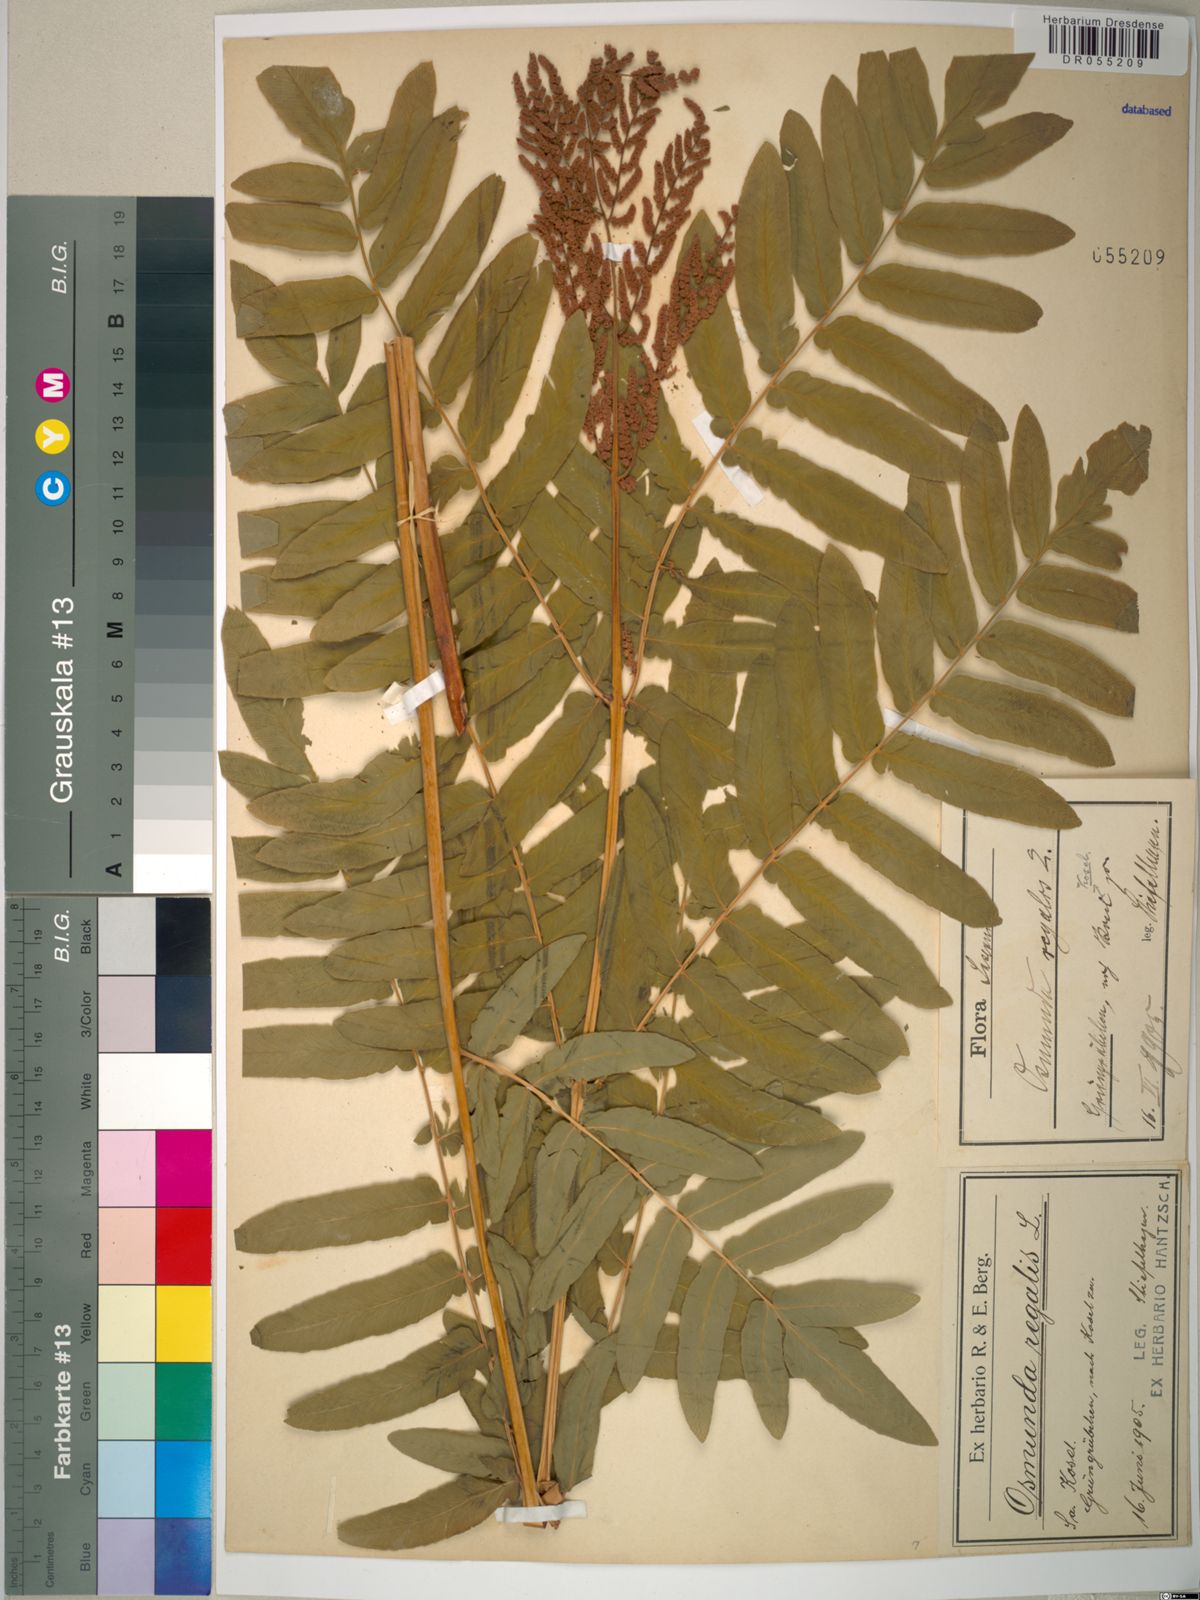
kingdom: Plantae
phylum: Tracheophyta
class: Polypodiopsida
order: Osmundales
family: Osmundaceae
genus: Osmunda
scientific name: Osmunda regalis
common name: Royal fern
